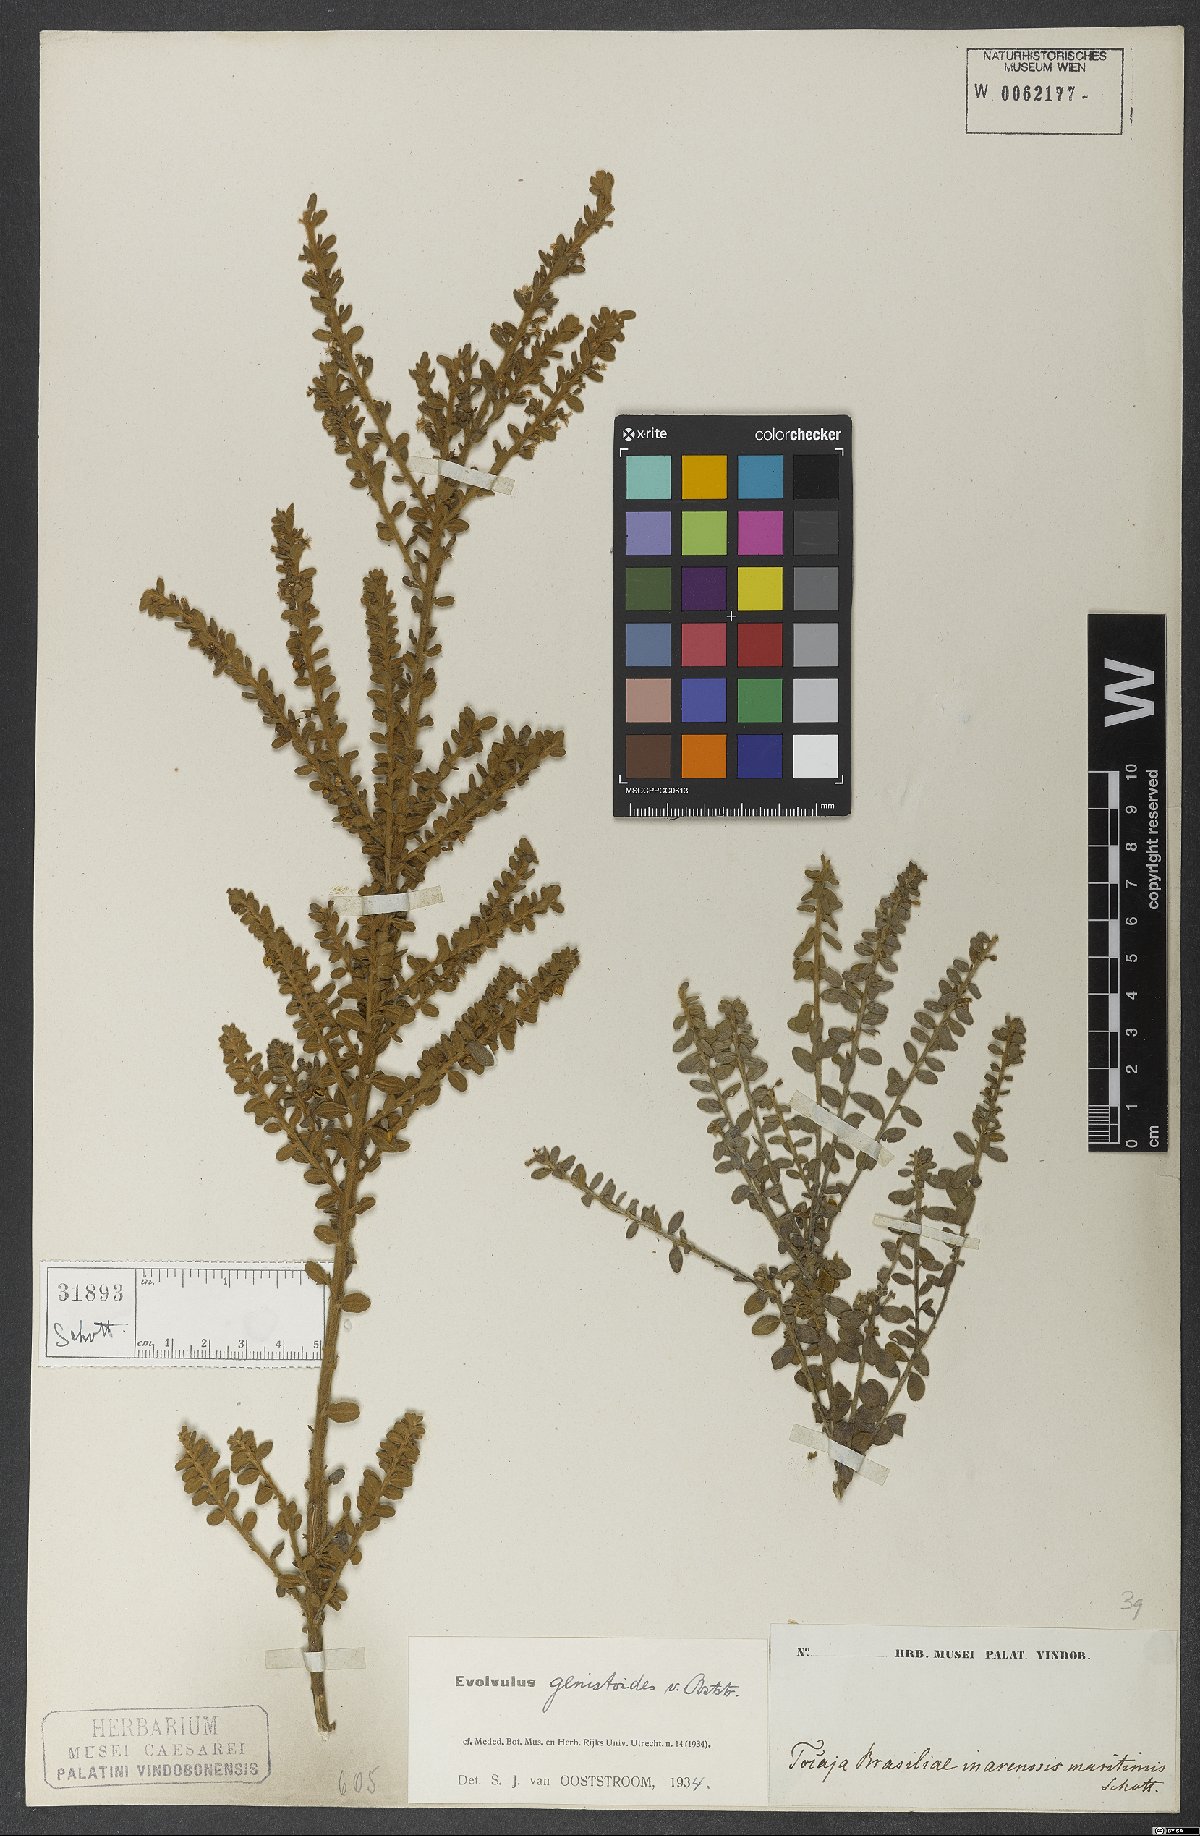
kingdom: Plantae
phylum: Tracheophyta
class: Magnoliopsida
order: Solanales
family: Convolvulaceae
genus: Evolvulus
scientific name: Evolvulus genistoides
